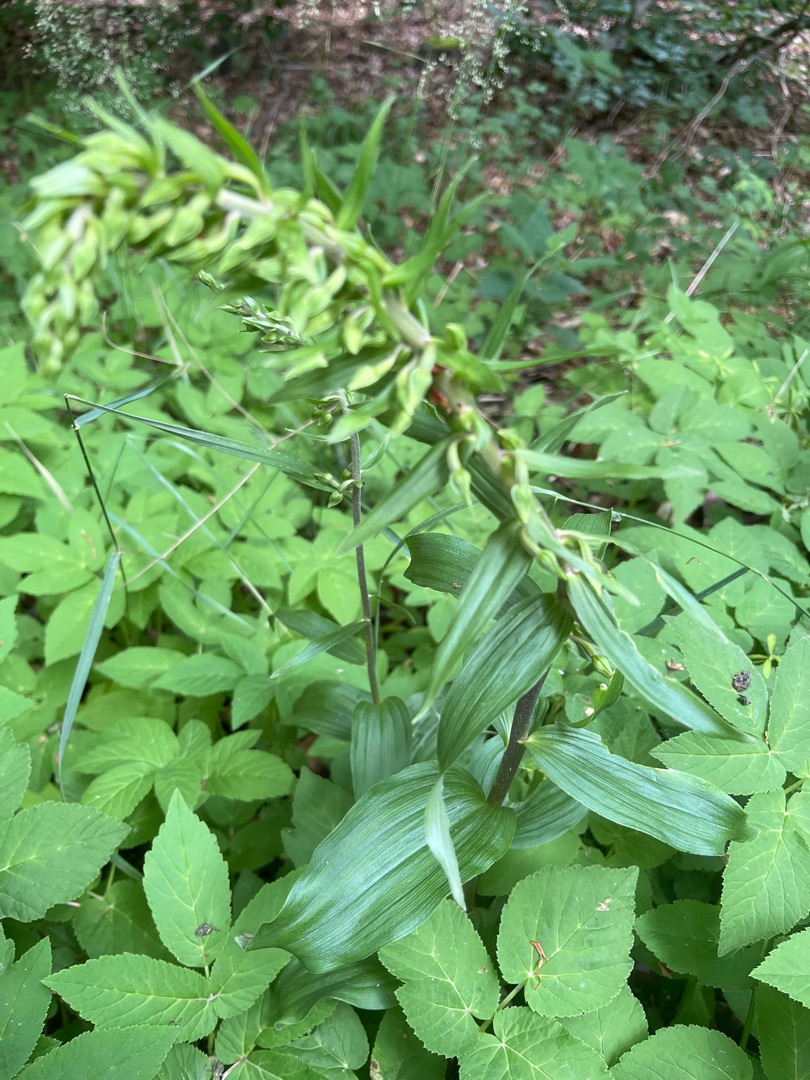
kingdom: Plantae
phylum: Tracheophyta
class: Liliopsida
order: Asparagales
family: Orchidaceae
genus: Epipactis
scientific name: Epipactis helleborine
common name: Skov-hullæbe
